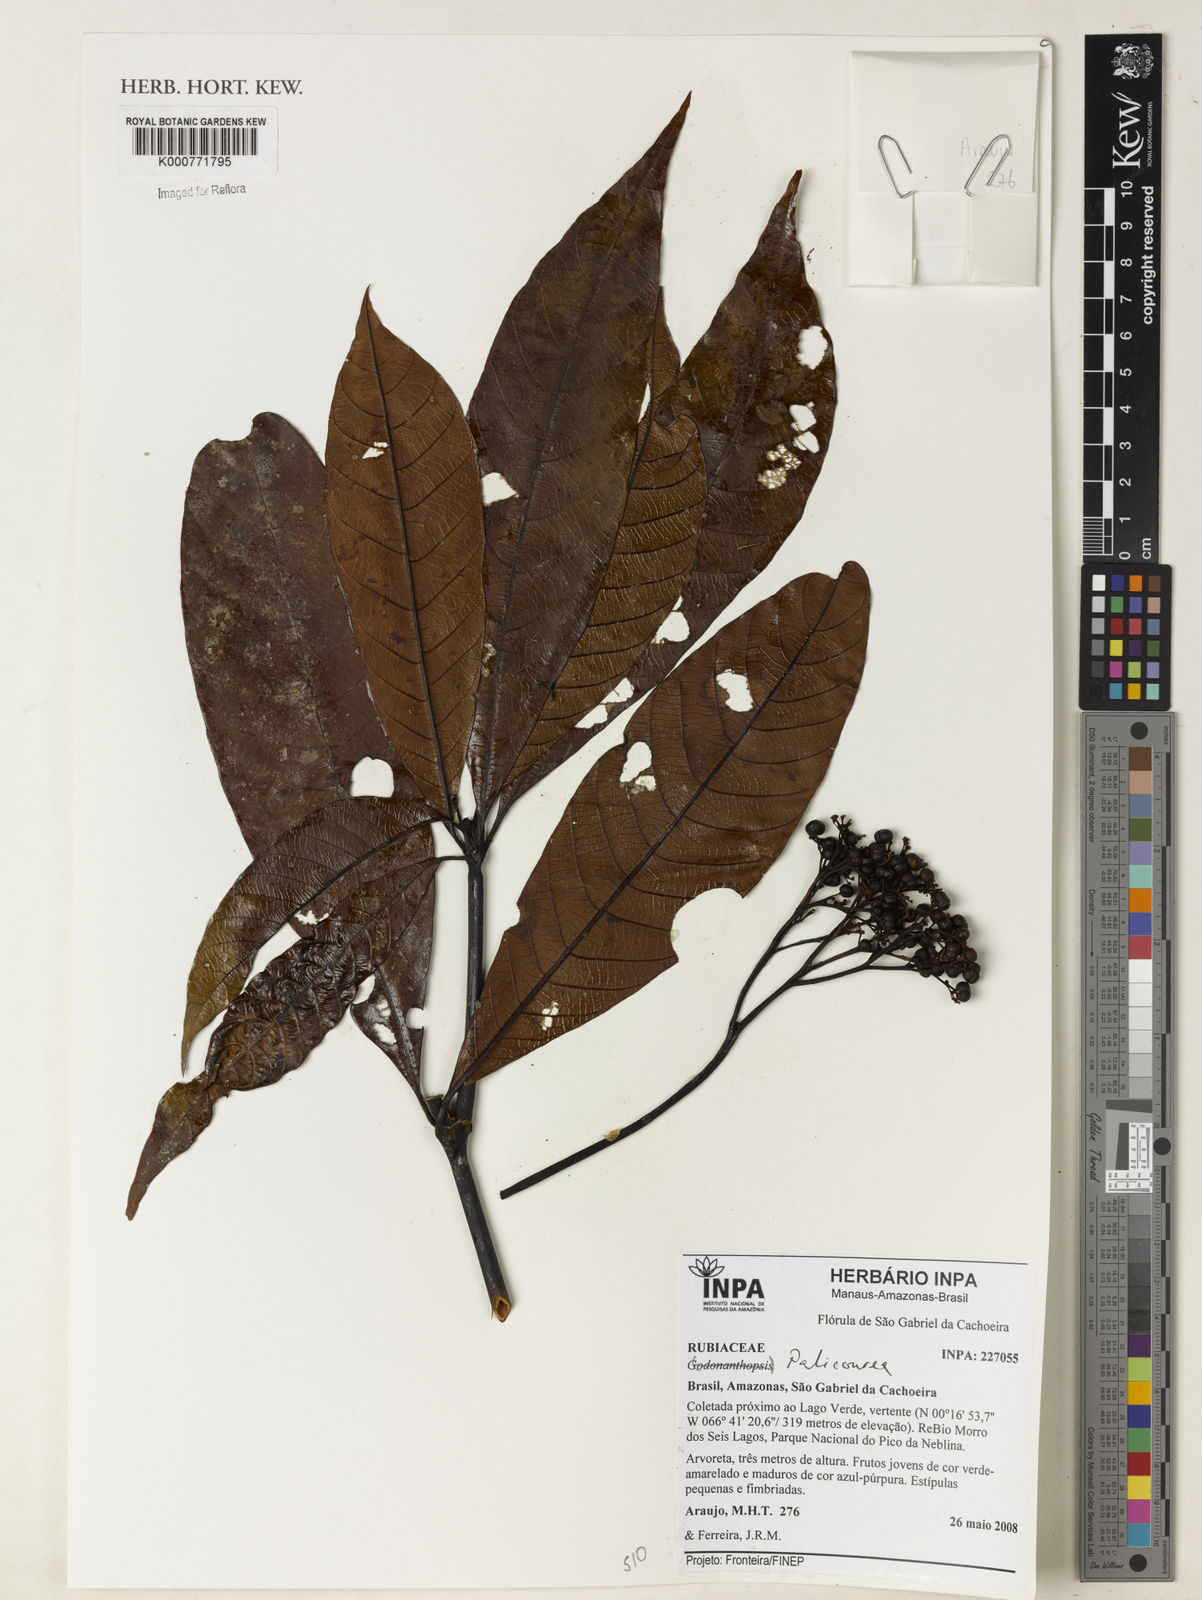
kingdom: Plantae
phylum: Tracheophyta
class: Magnoliopsida
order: Gentianales
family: Rubiaceae
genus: Palicourea
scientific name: Palicourea
